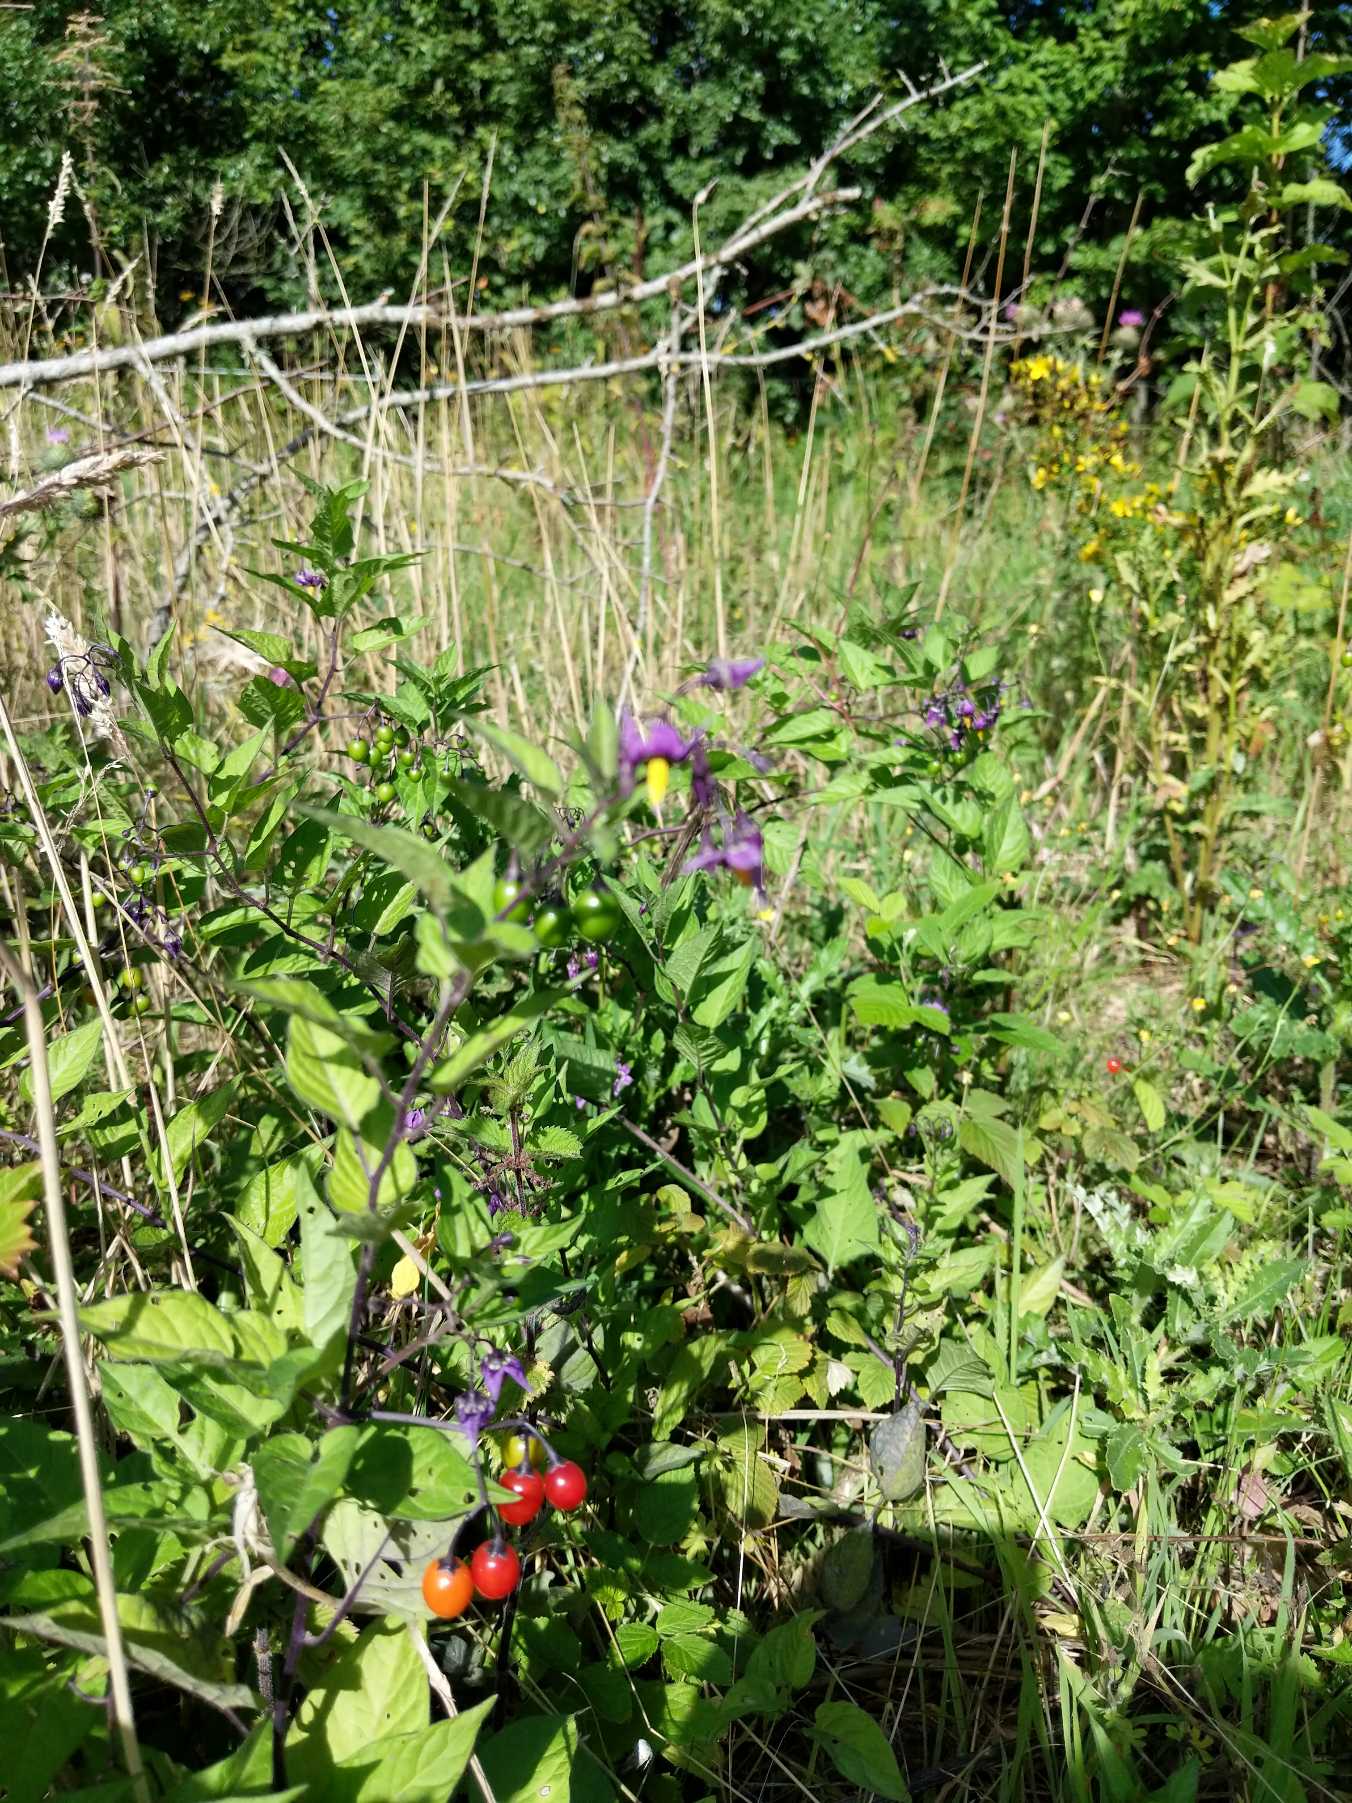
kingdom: Plantae
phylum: Tracheophyta
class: Magnoliopsida
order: Solanales
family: Solanaceae
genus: Solanum
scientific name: Solanum dulcamara
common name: Bittersød natskygge
